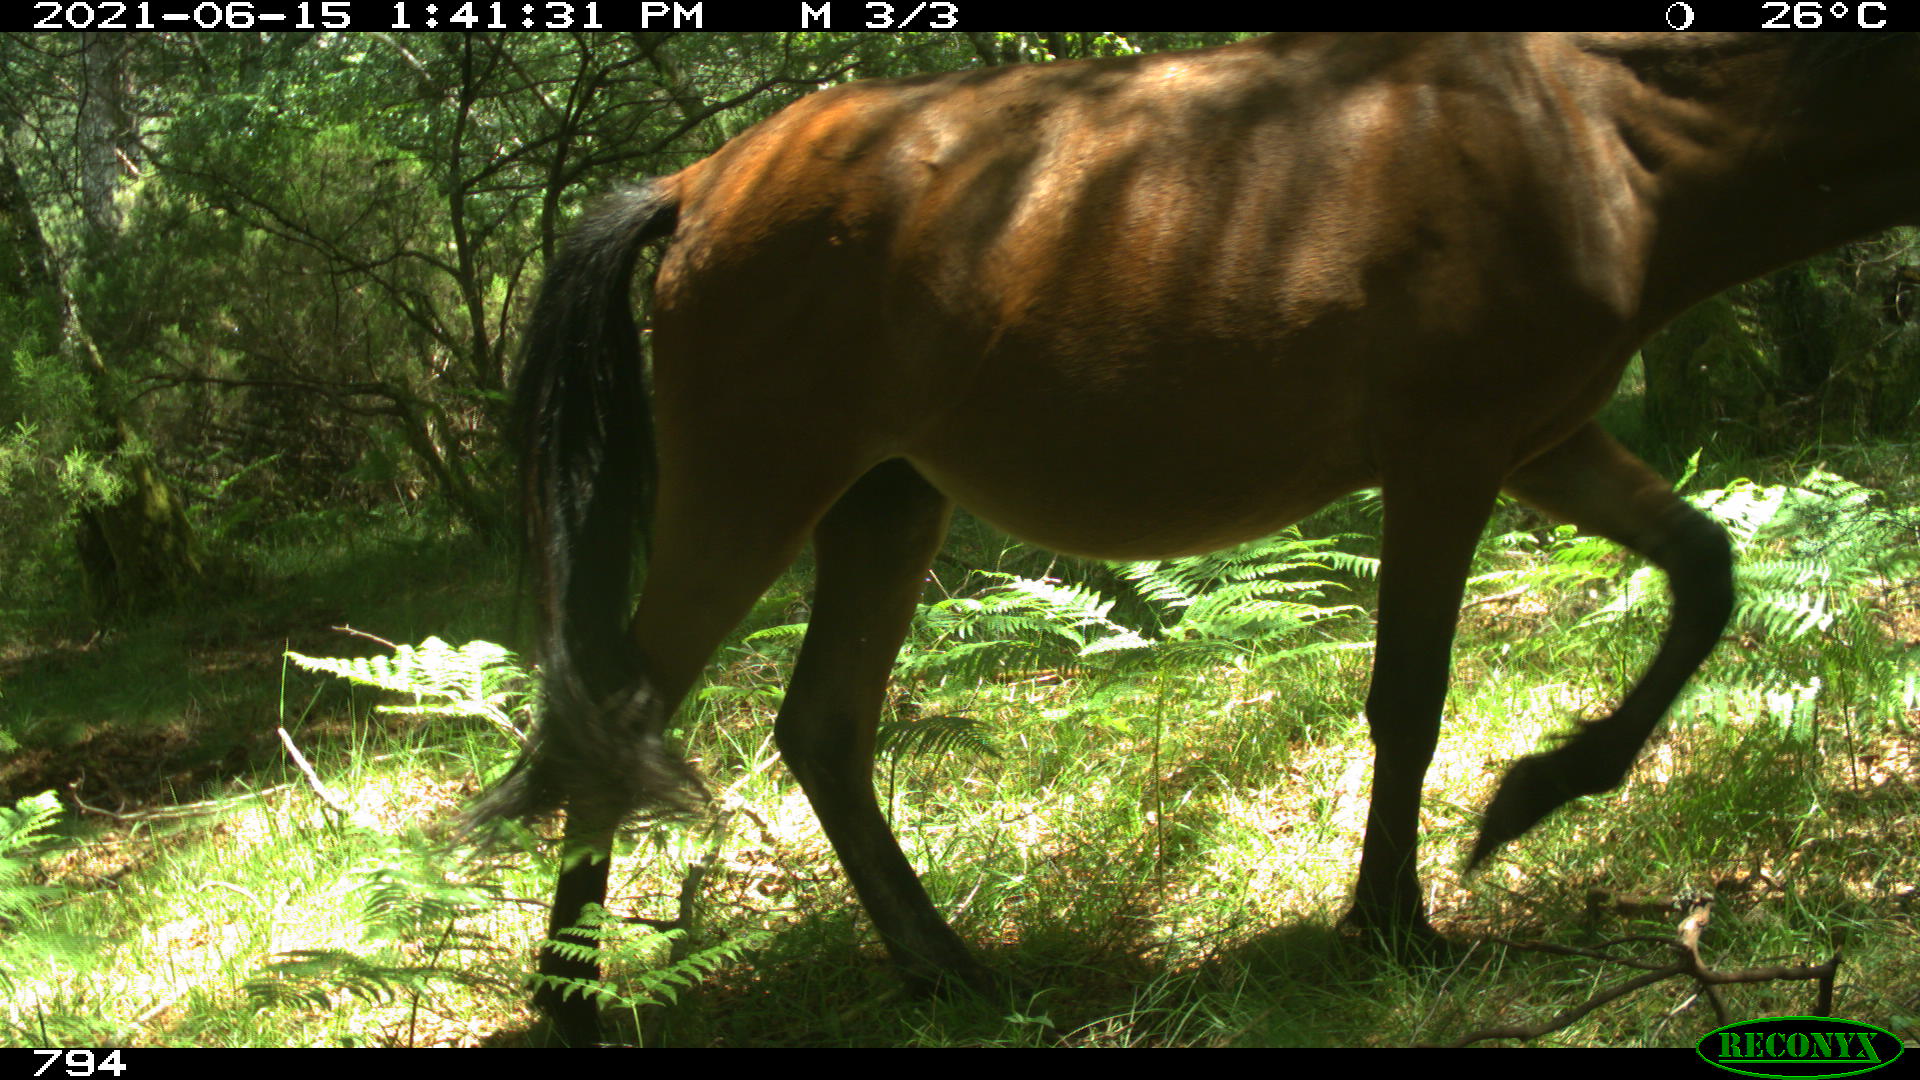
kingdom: Animalia
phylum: Chordata
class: Mammalia
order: Perissodactyla
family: Equidae
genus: Equus
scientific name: Equus caballus
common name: Horse
